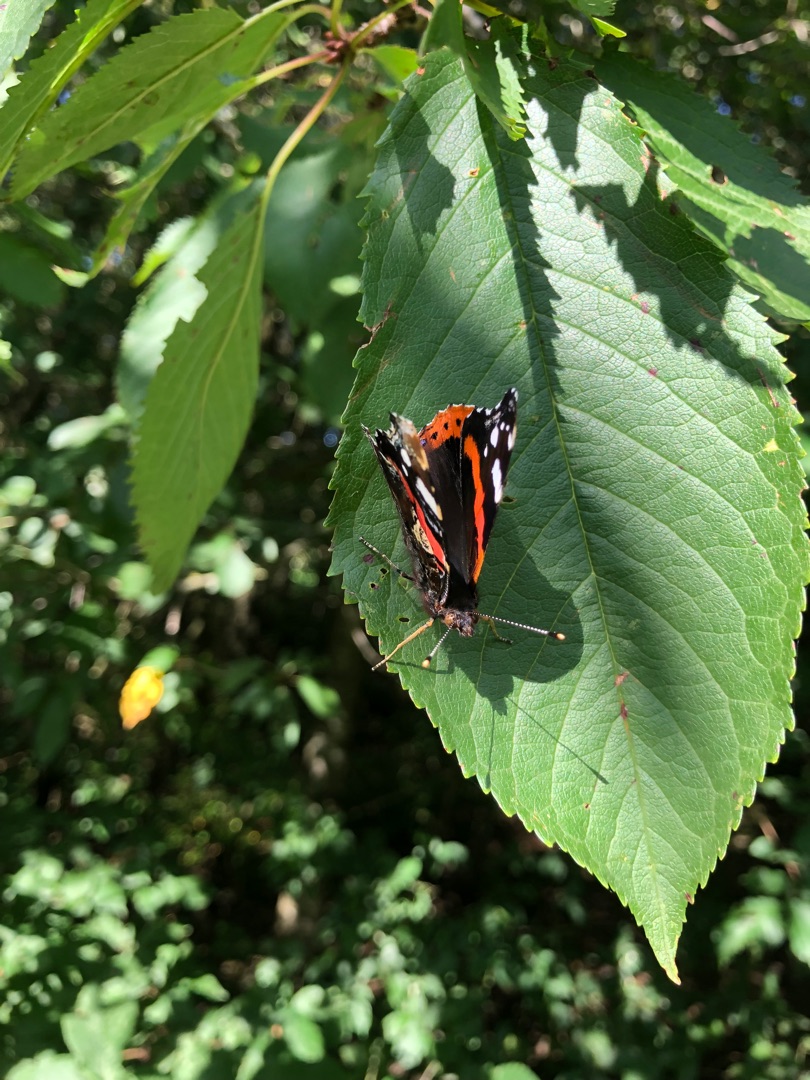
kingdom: Animalia
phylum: Arthropoda
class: Insecta
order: Lepidoptera
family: Nymphalidae
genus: Vanessa
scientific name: Vanessa atalanta
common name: Admiral
